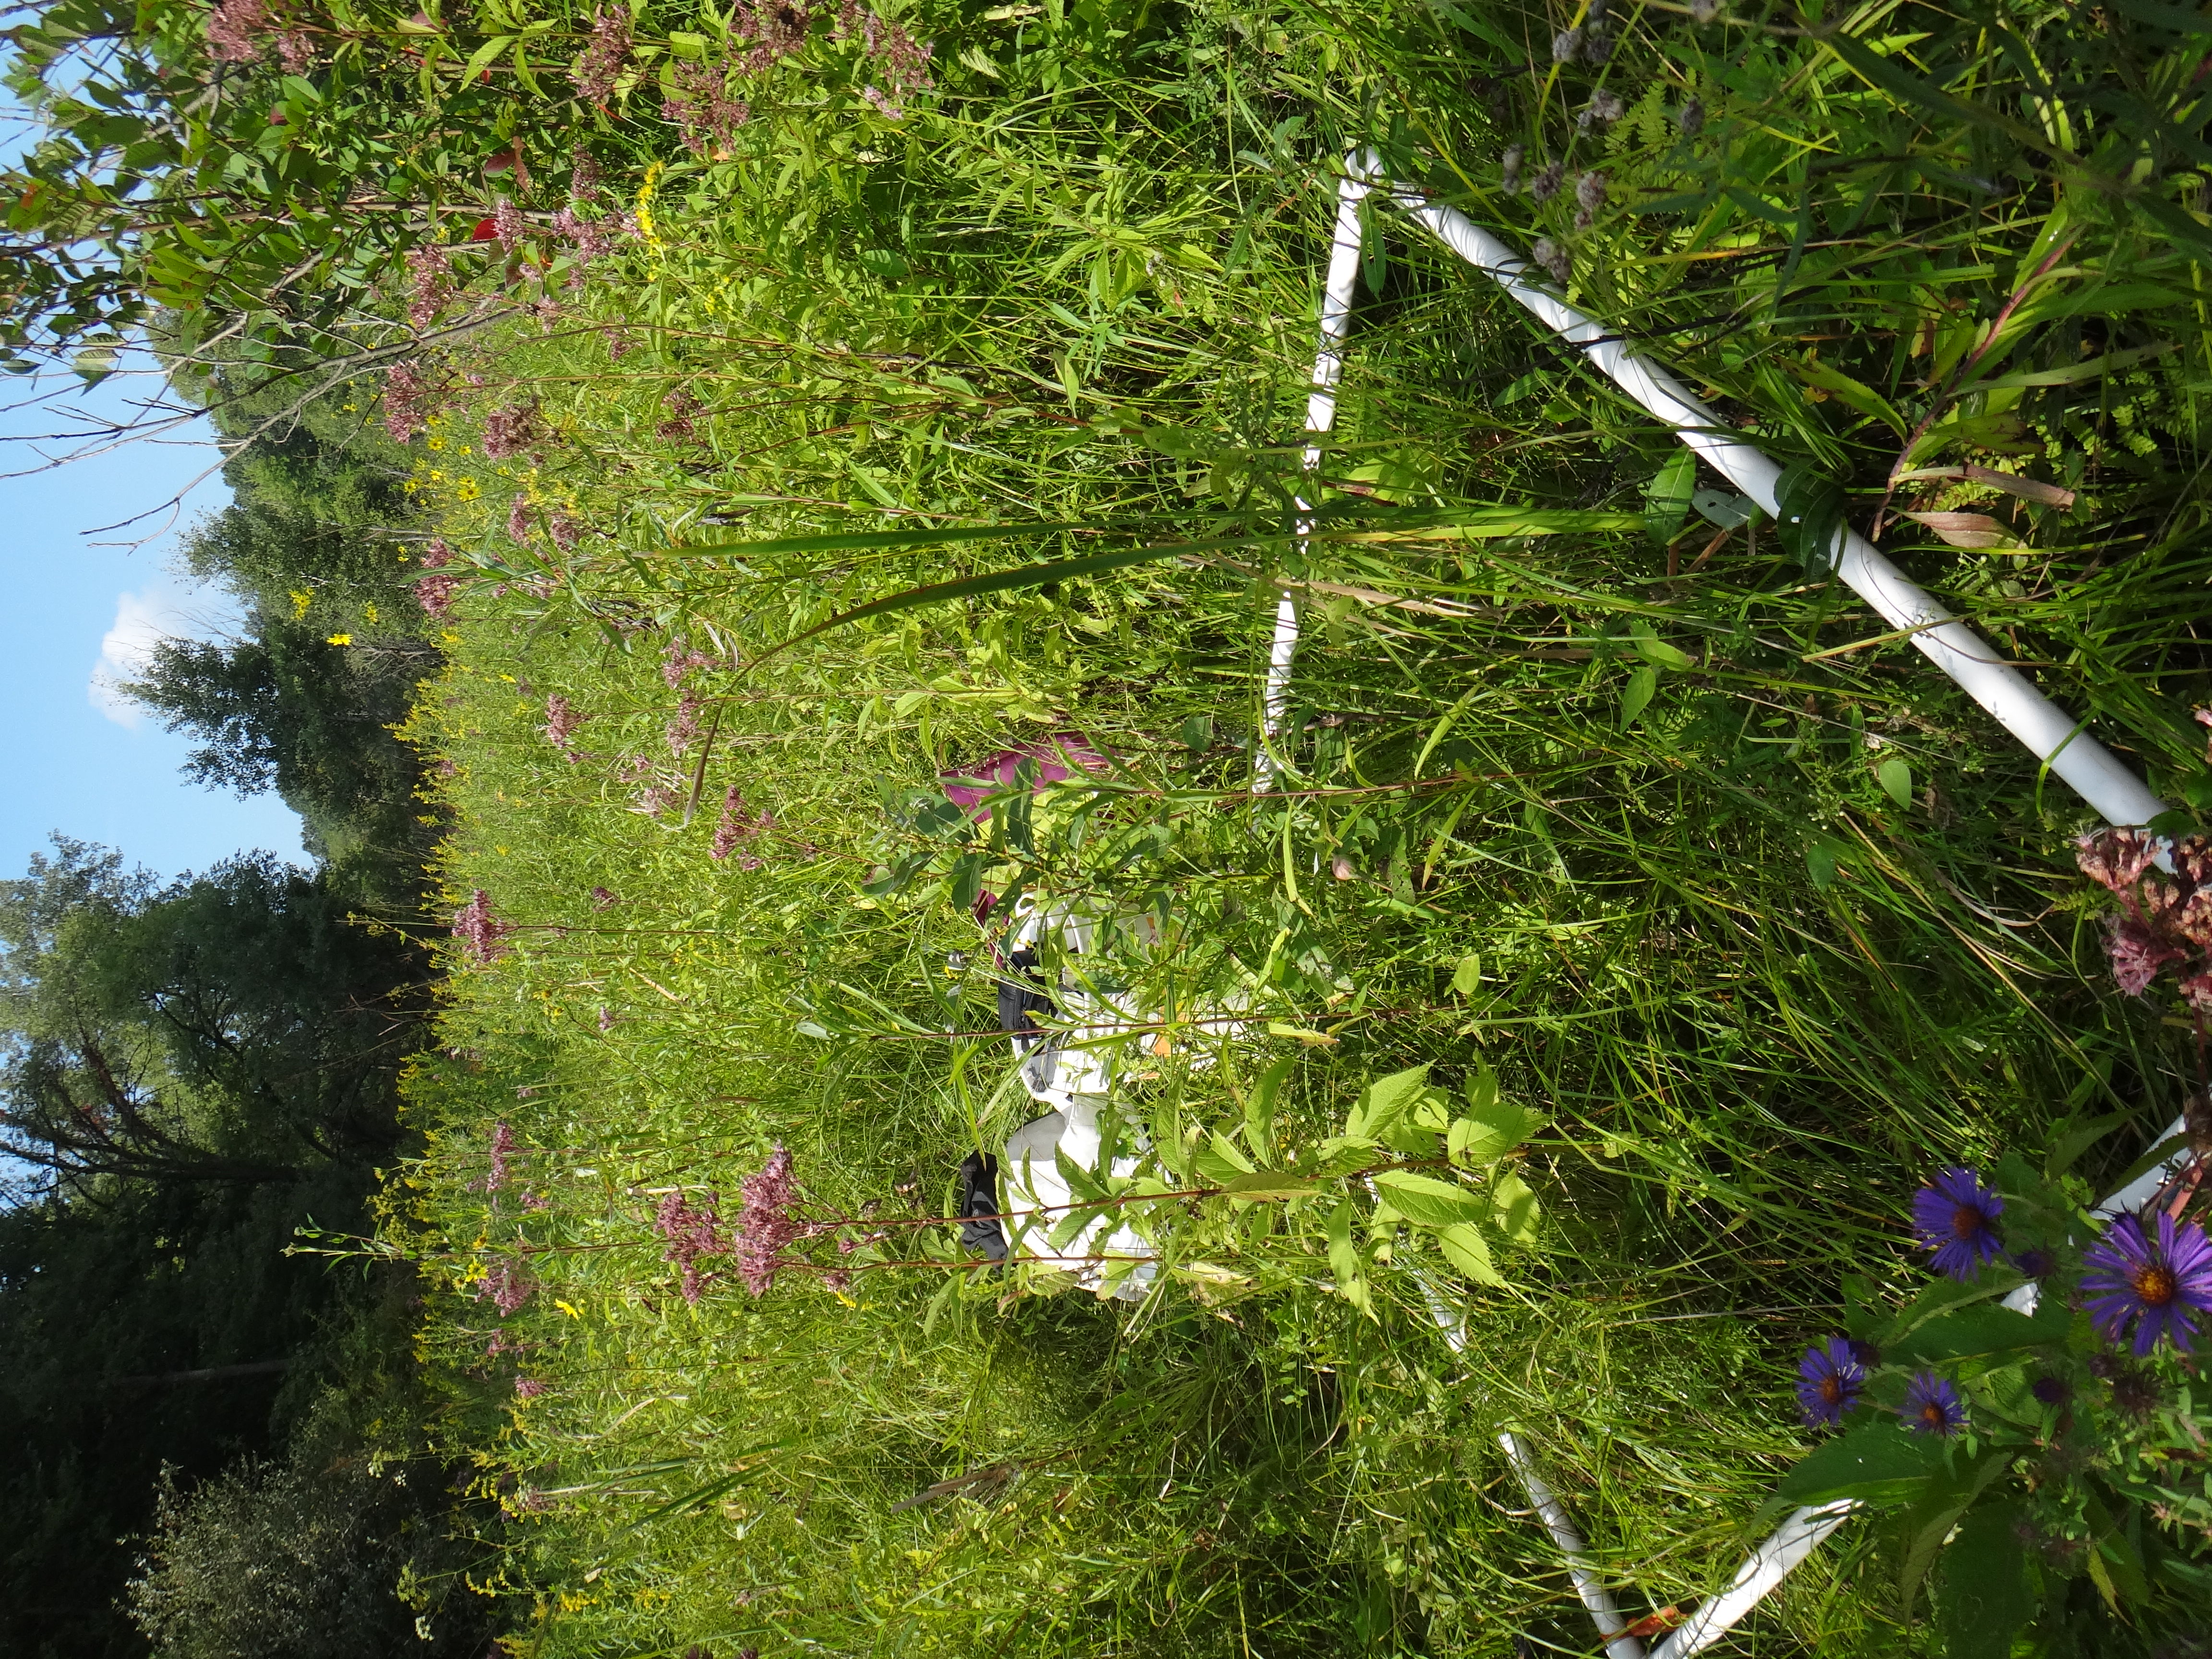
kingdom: Plantae
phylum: Tracheophyta
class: Magnoliopsida
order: Lamiales
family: Lamiaceae
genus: Pycnanthemum
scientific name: Pycnanthemum virginianum
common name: Virginia mountain-mint
